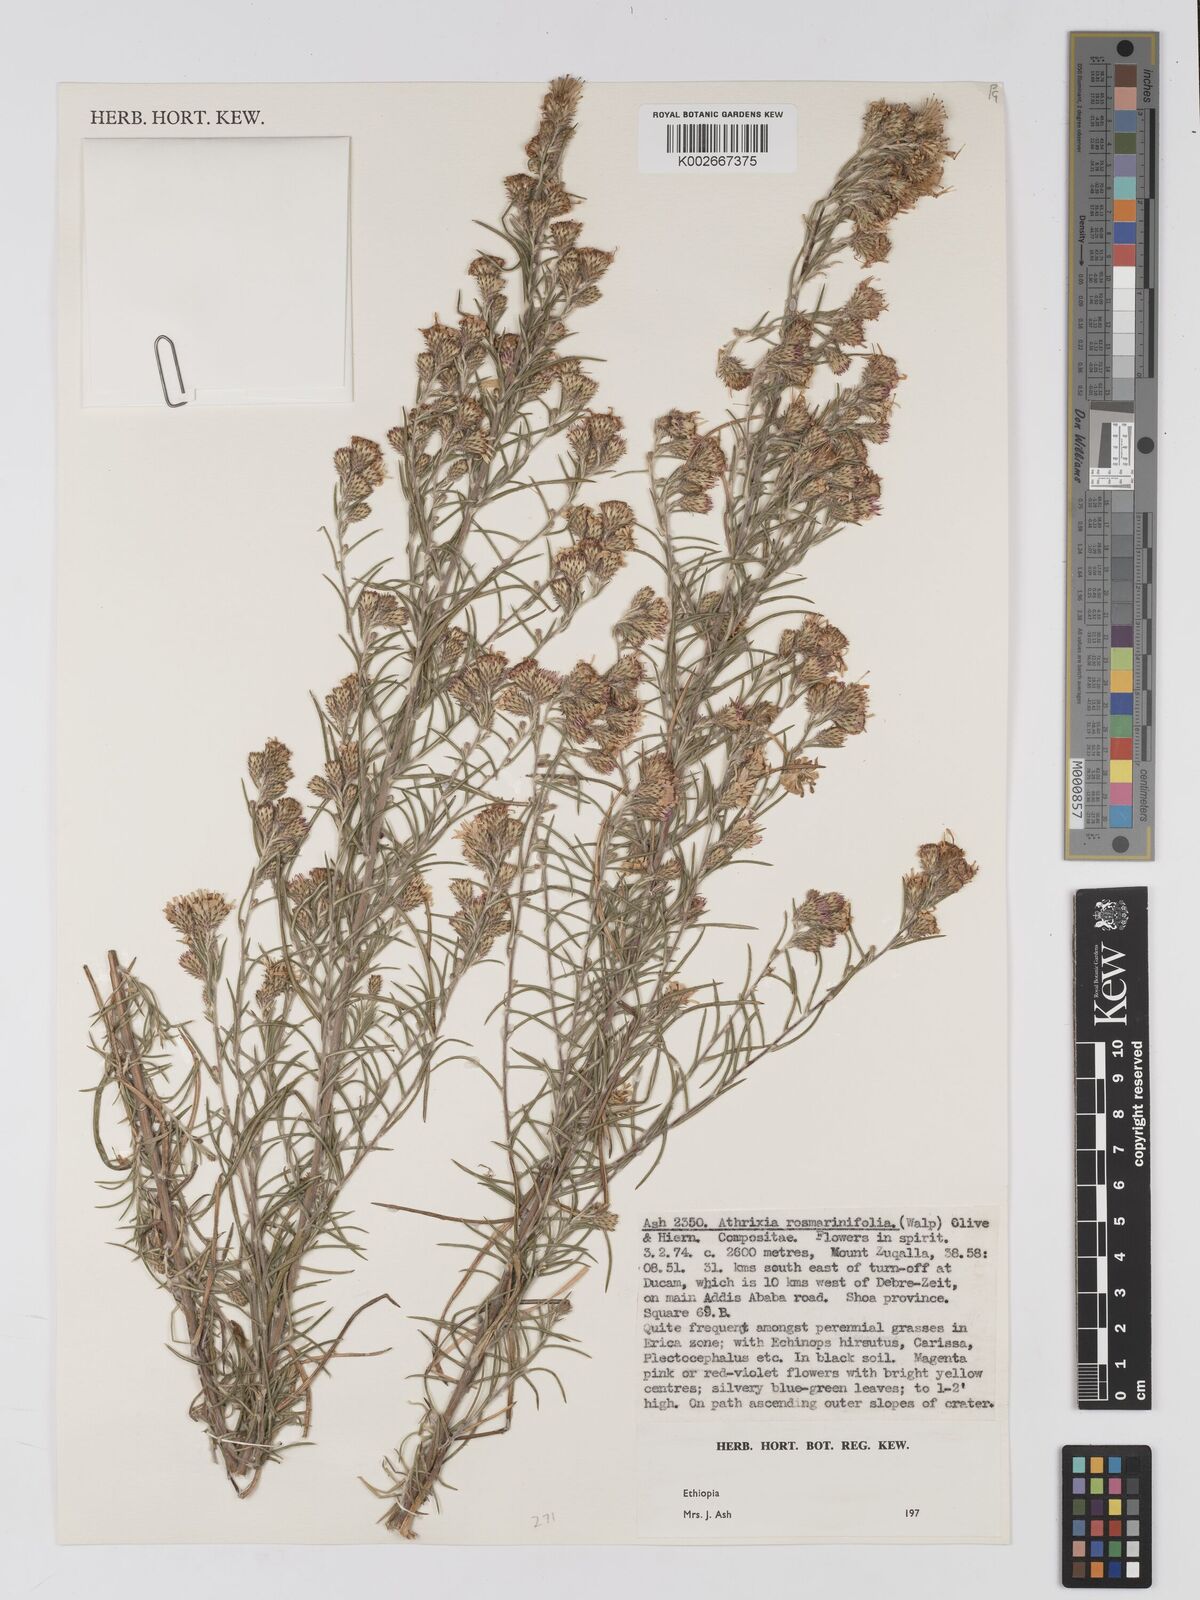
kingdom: Plantae
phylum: Tracheophyta
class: Magnoliopsida
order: Asterales
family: Asteraceae
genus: Athrixia
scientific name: Athrixia rosmarinifolia
